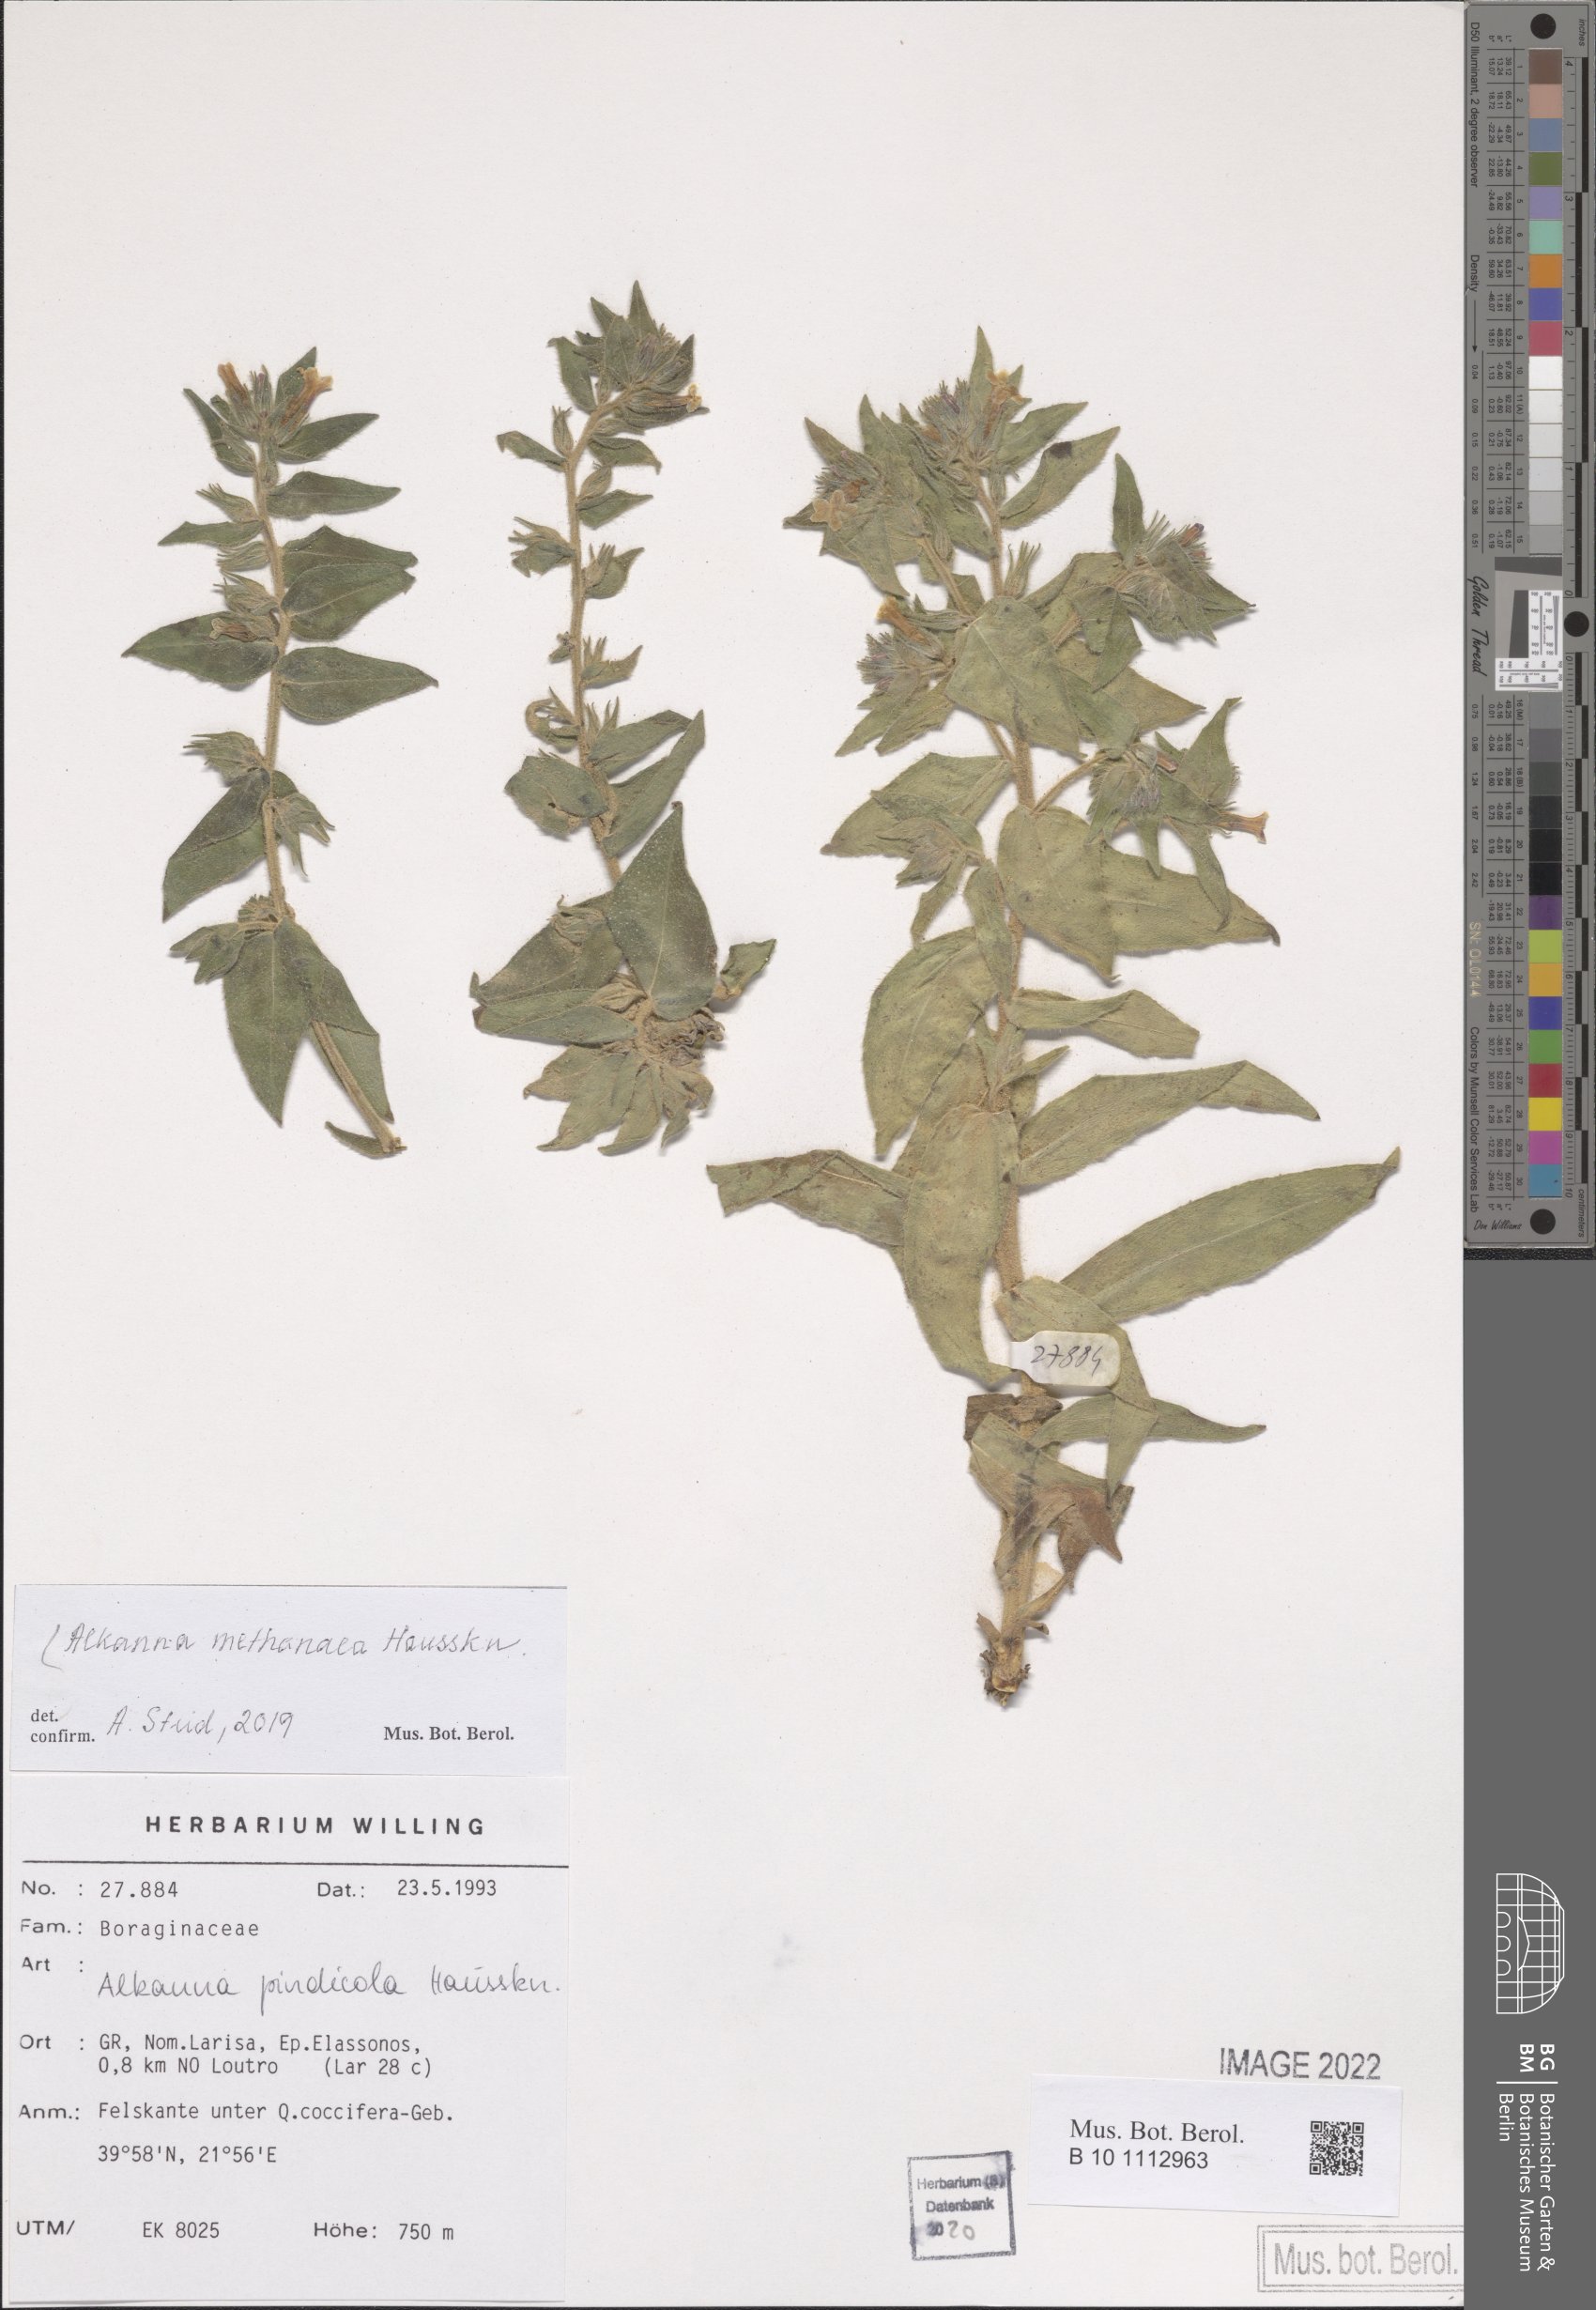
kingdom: Plantae
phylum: Tracheophyta
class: Magnoliopsida
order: Boraginales
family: Boraginaceae
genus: Alkanna
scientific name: Alkanna methanaea
